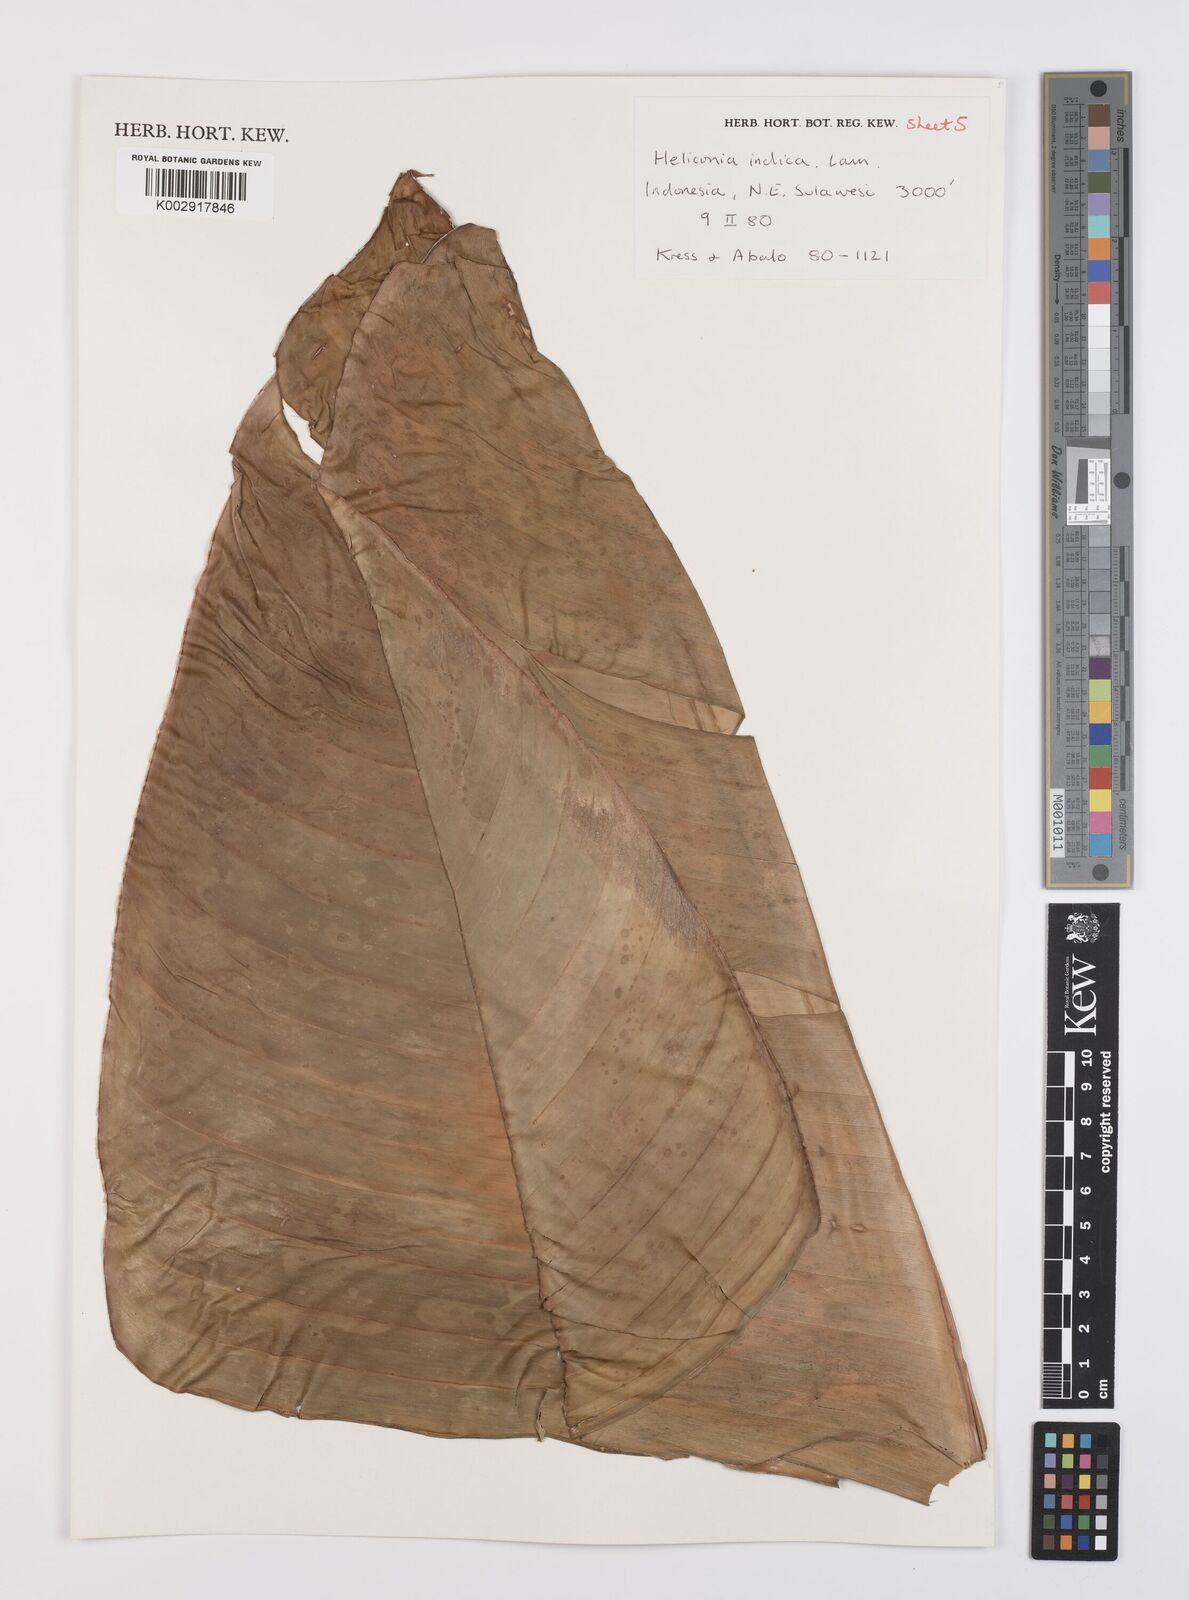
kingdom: Plantae
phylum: Tracheophyta
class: Liliopsida
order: Zingiberales
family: Heliconiaceae
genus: Heliconia
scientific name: Heliconia indica
